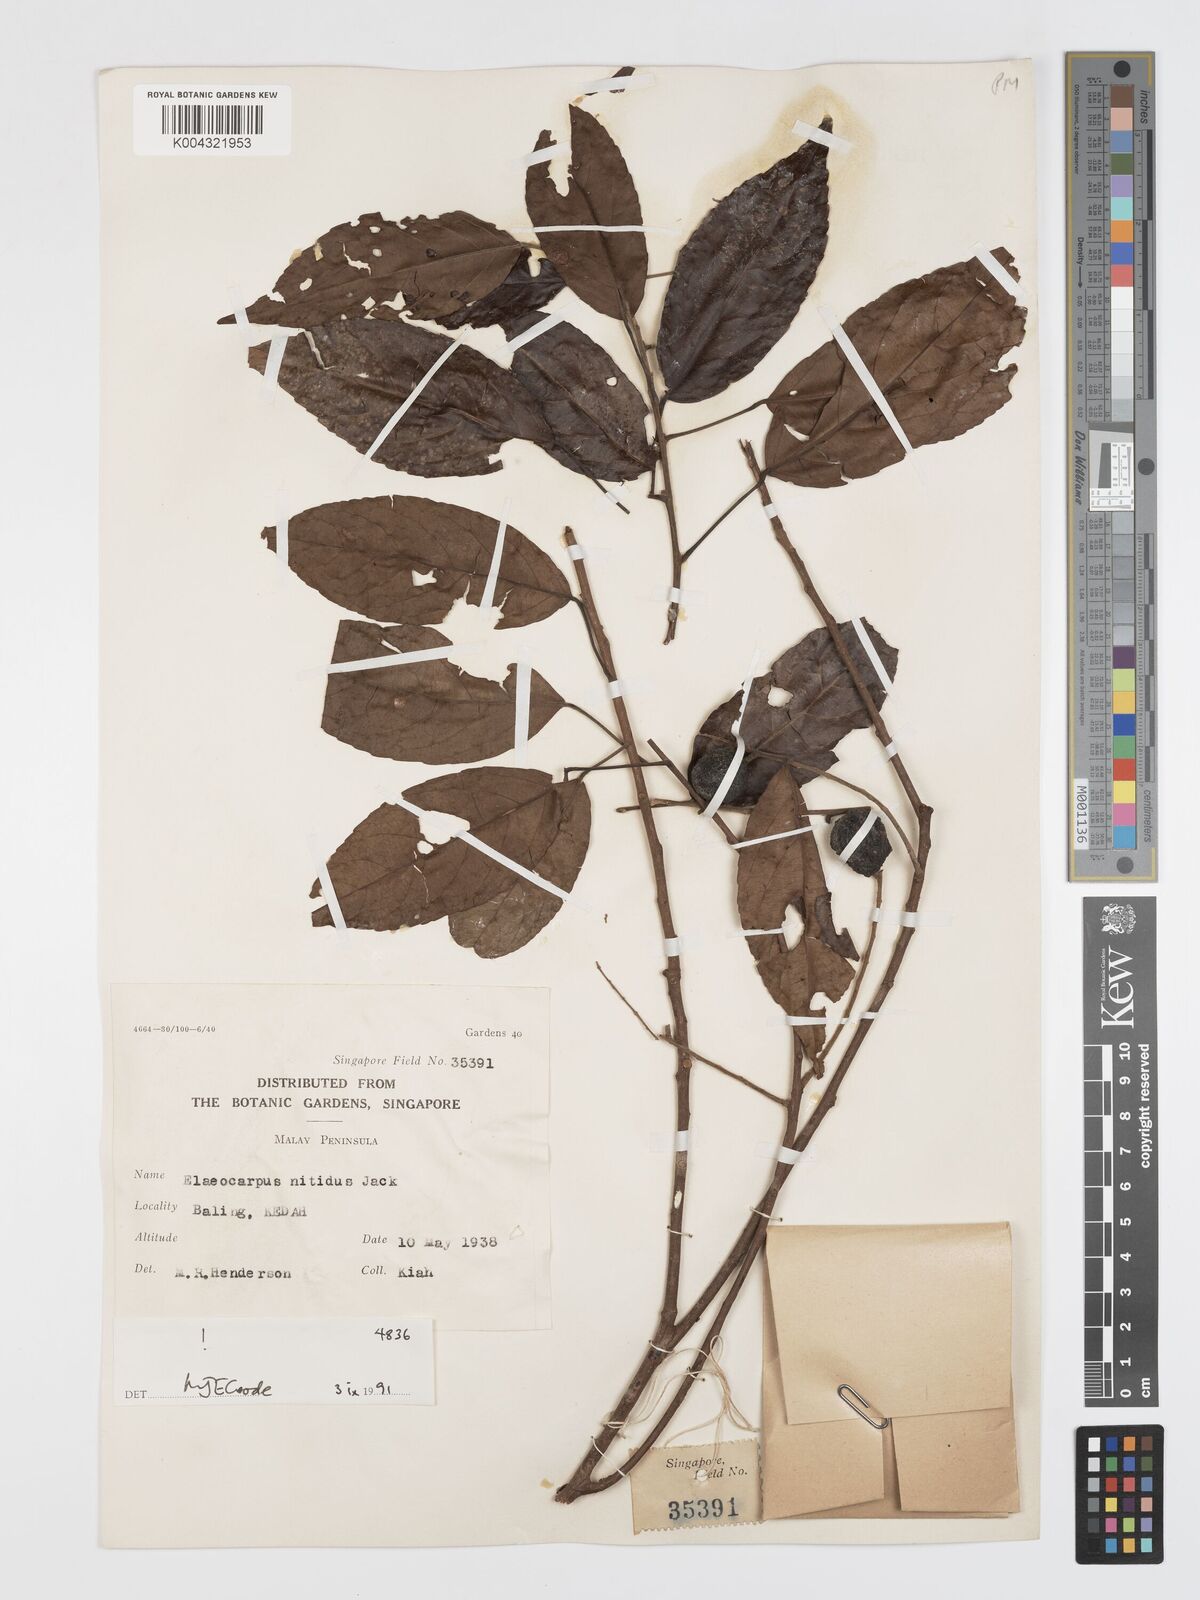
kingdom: Plantae
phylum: Tracheophyta
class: Magnoliopsida
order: Oxalidales
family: Elaeocarpaceae
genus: Elaeocarpus
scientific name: Elaeocarpus nitidus
